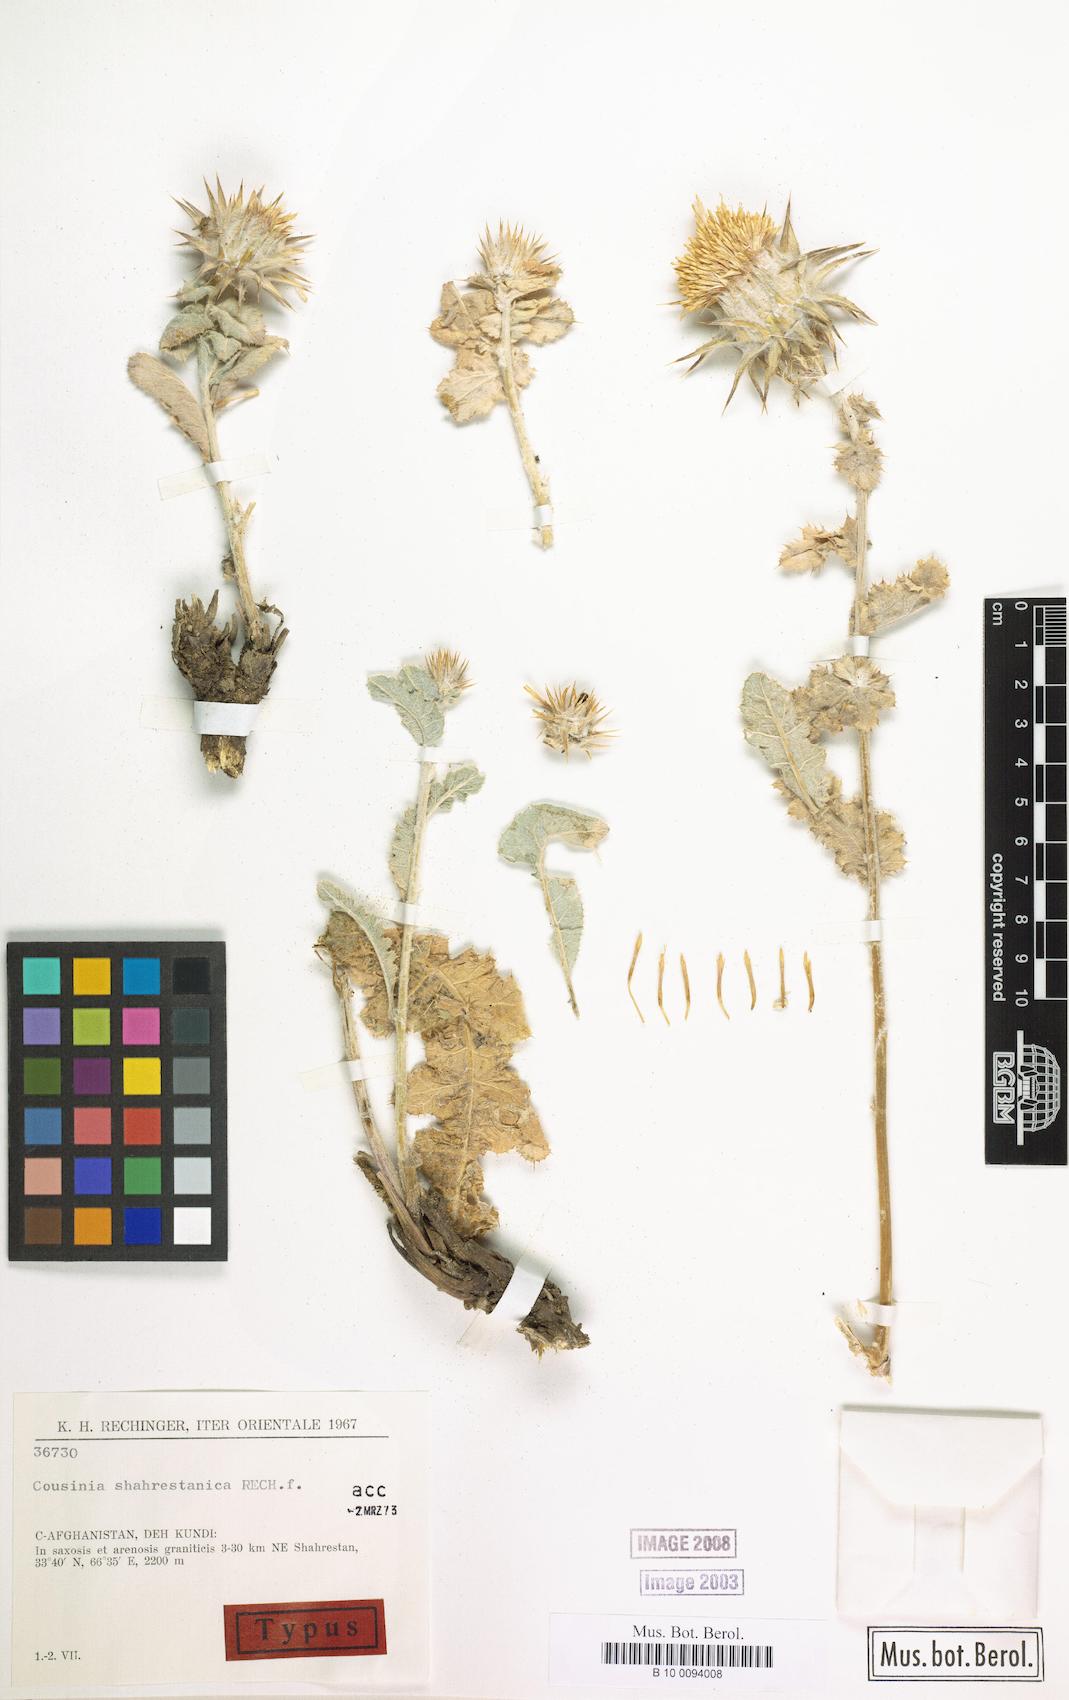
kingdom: Plantae
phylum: Tracheophyta
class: Magnoliopsida
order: Asterales
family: Asteraceae
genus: Cousinia
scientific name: Cousinia shahrestanica
